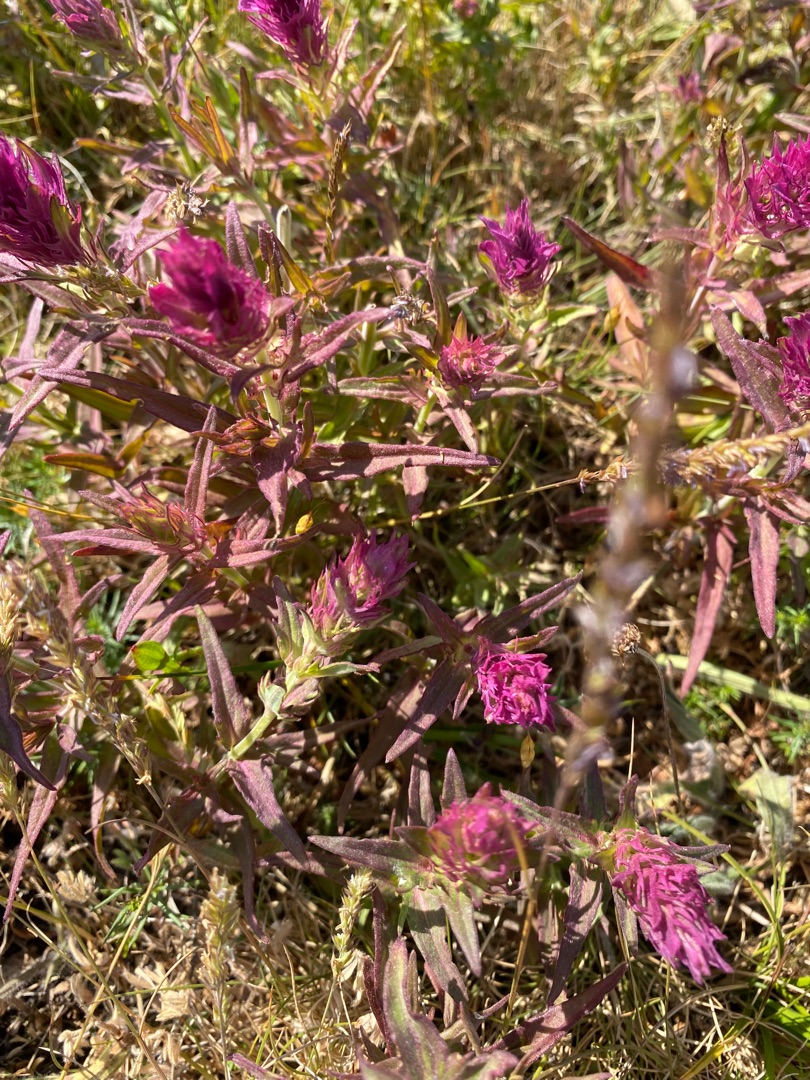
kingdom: Plantae
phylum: Tracheophyta
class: Magnoliopsida
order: Lamiales
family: Orobanchaceae
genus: Melampyrum
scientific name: Melampyrum arvense
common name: Ager-kohvede
